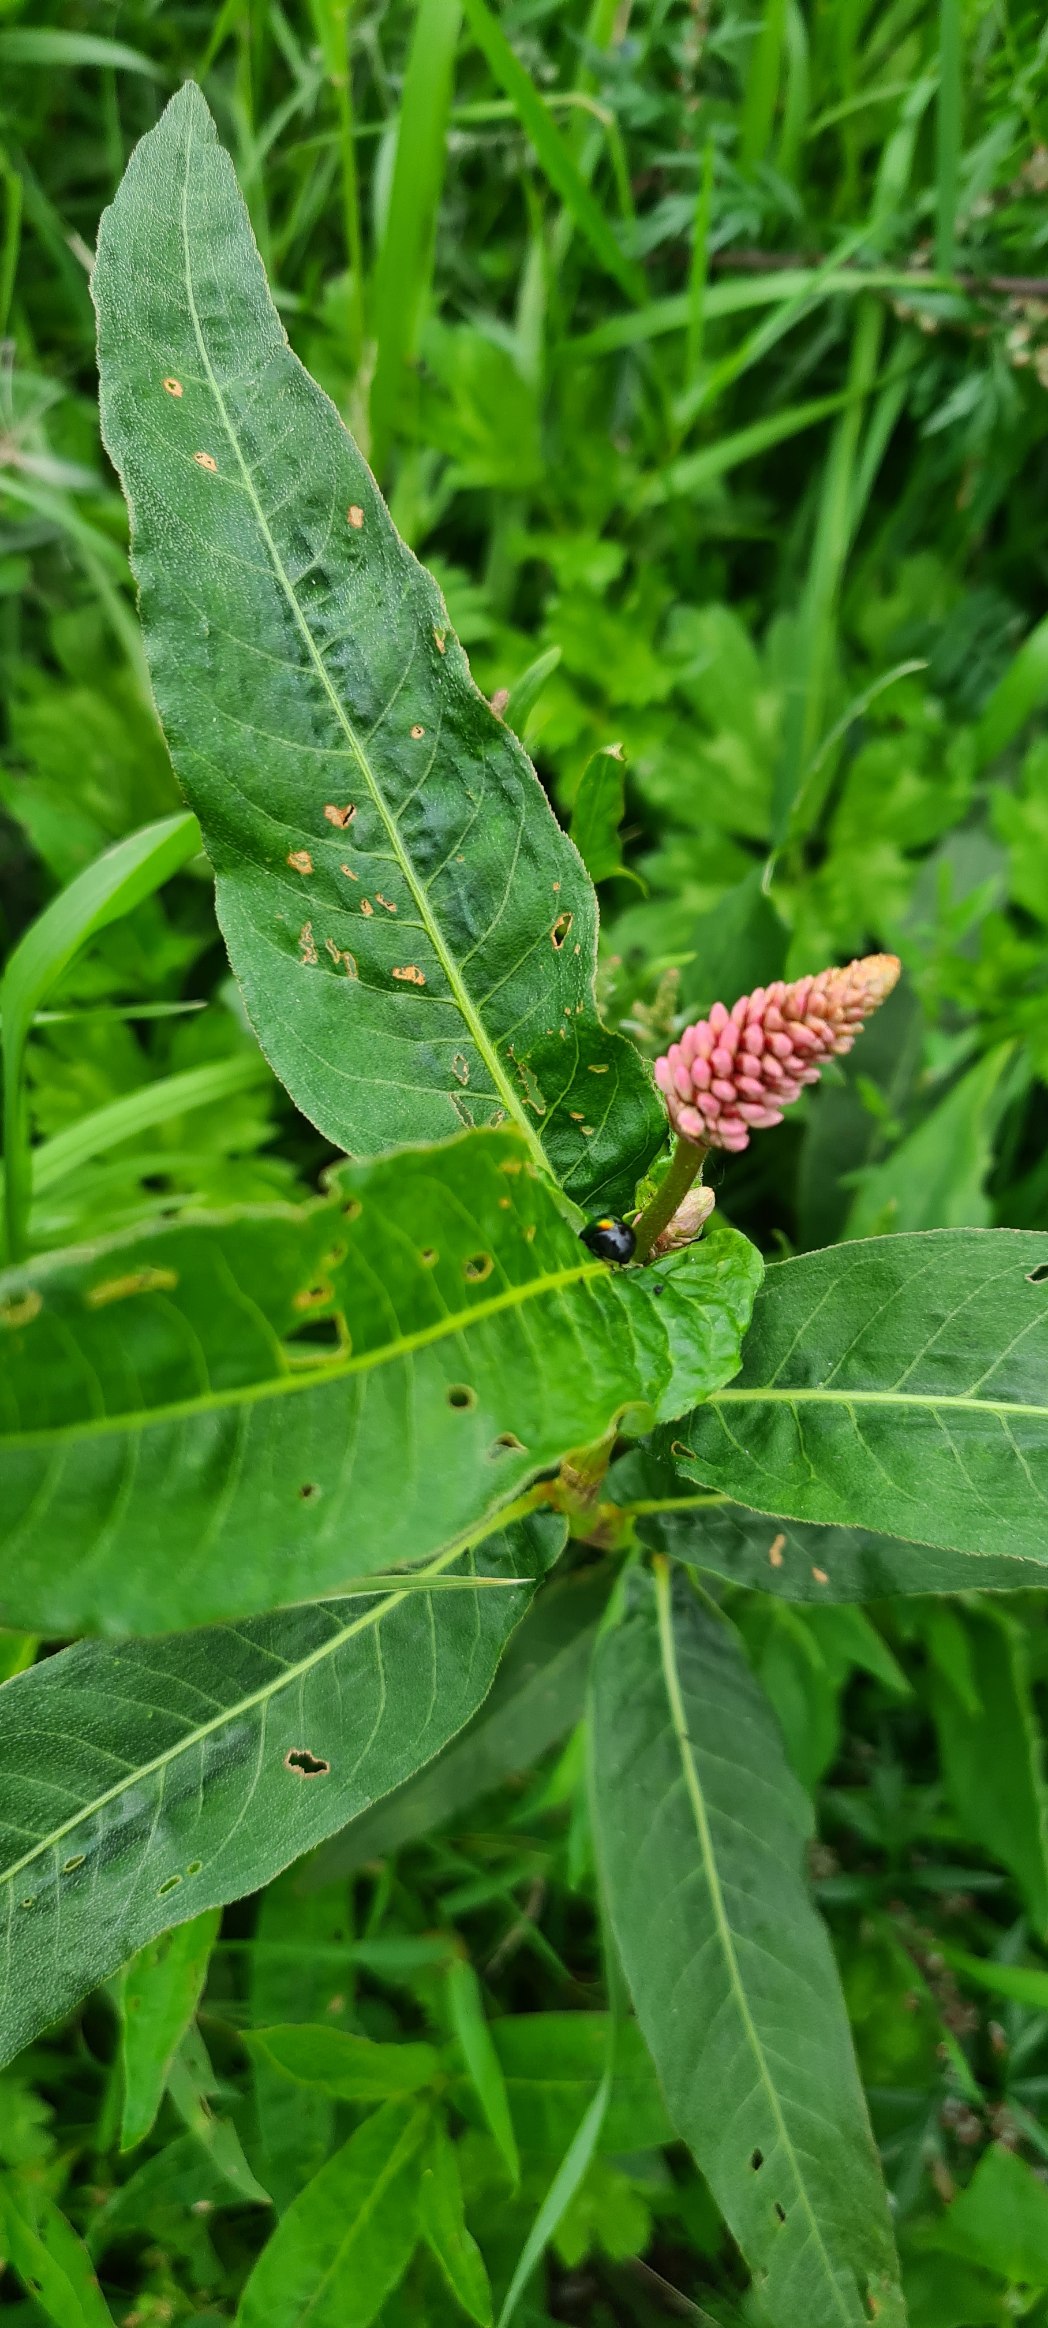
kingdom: Plantae
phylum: Tracheophyta
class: Magnoliopsida
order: Caryophyllales
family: Polygonaceae
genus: Persicaria
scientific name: Persicaria amphibia
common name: Vand-pileurt
